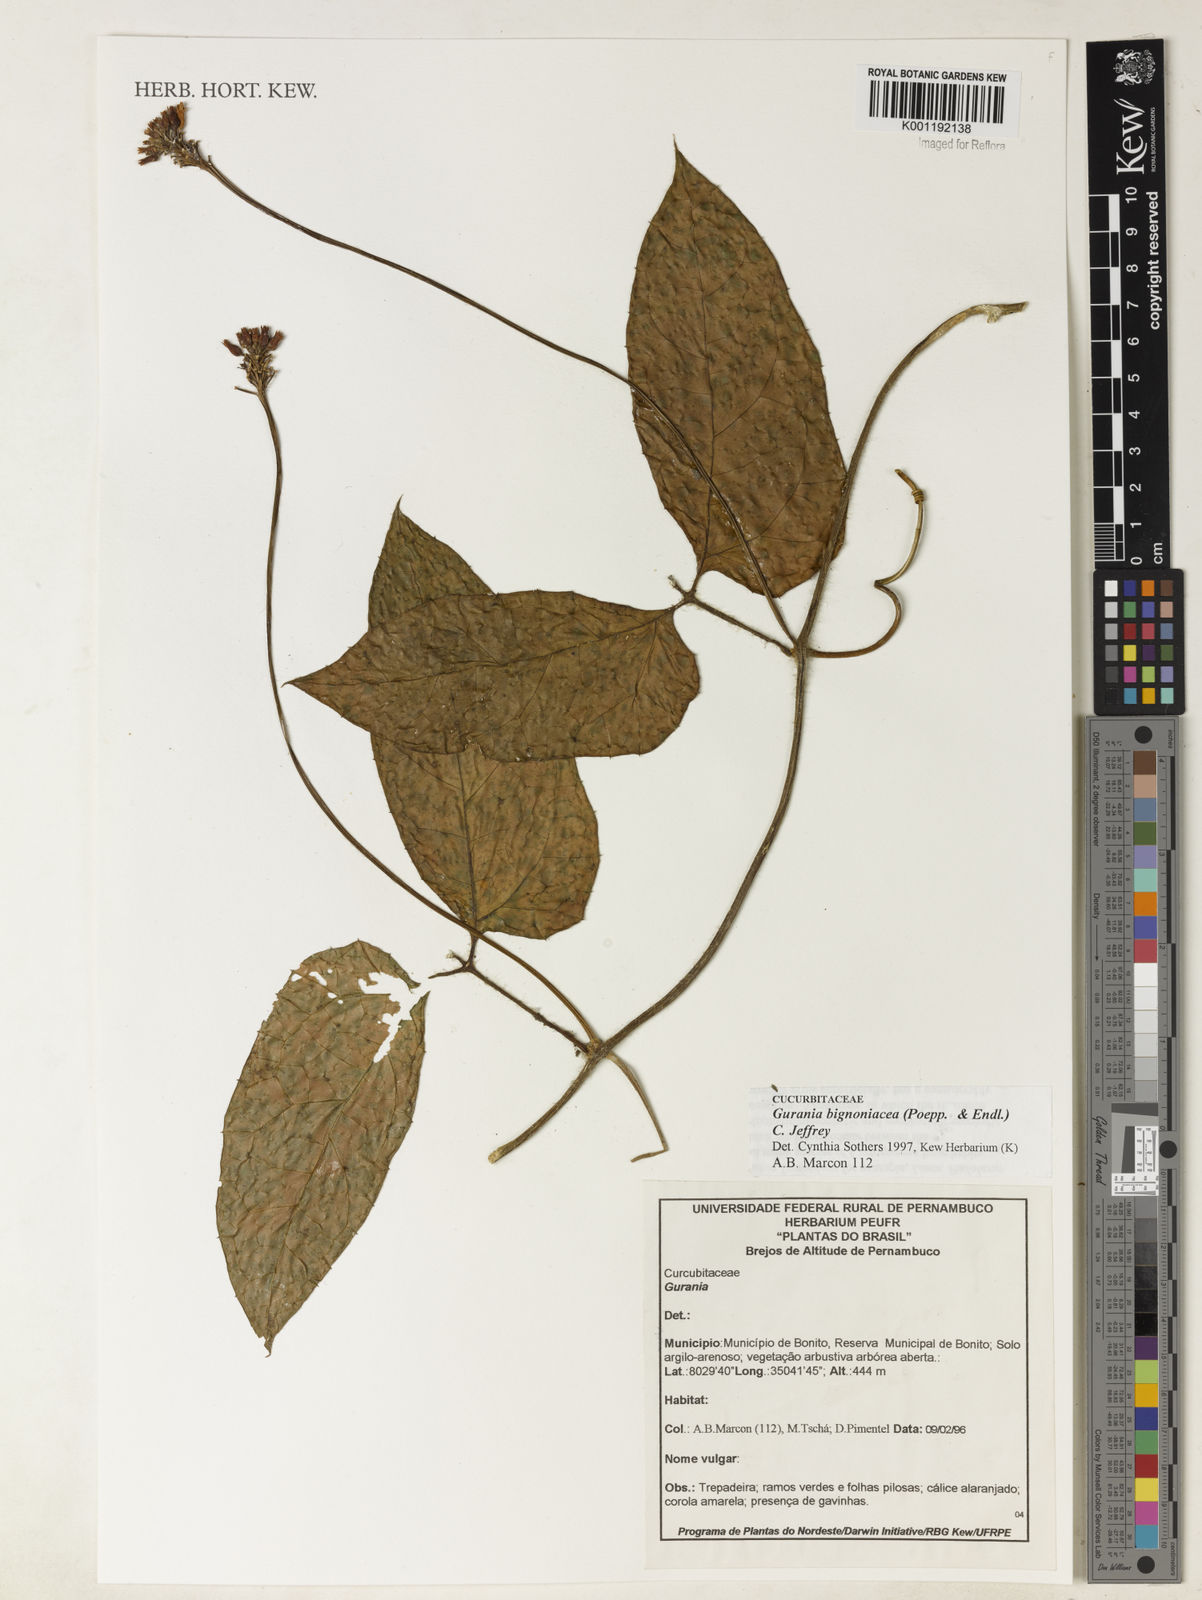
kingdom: Plantae
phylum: Tracheophyta
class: Magnoliopsida
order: Cucurbitales
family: Cucurbitaceae
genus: Gurania
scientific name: Gurania bignoniacea
